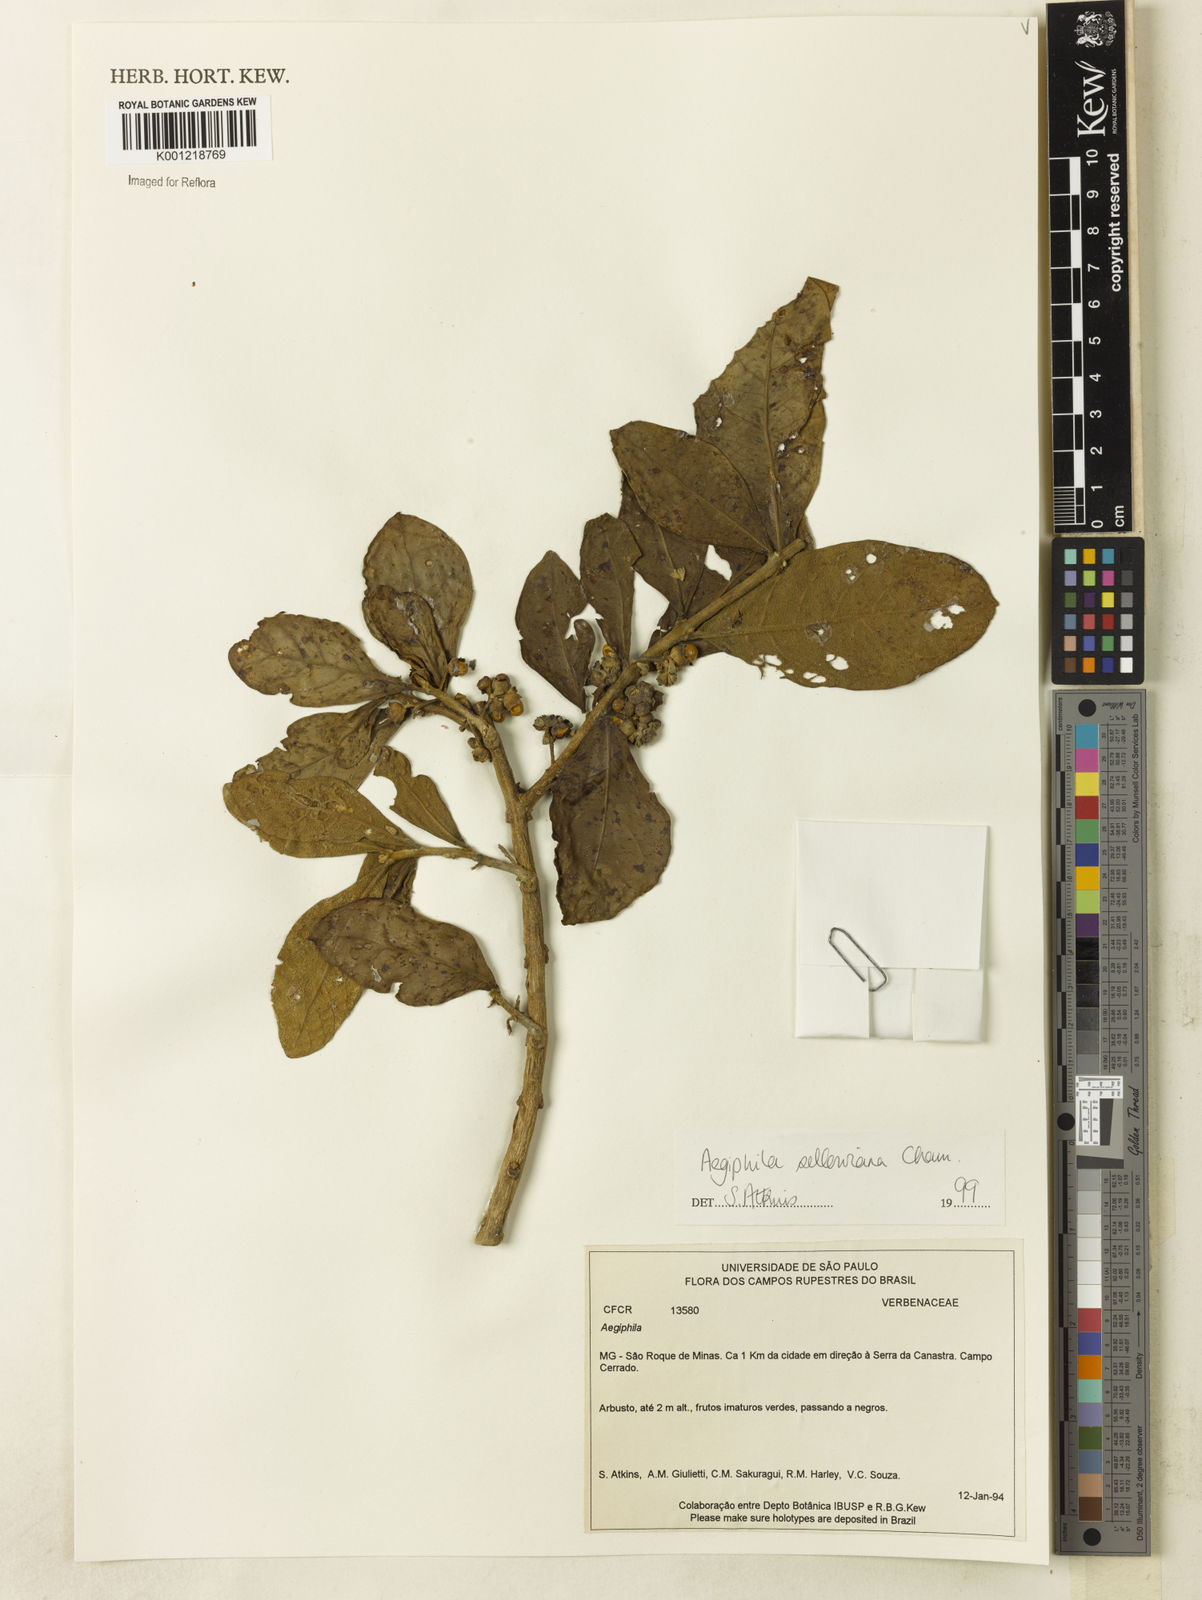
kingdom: Plantae
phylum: Tracheophyta
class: Magnoliopsida
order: Lamiales
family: Lamiaceae
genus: Aegiphila
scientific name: Aegiphila verticillata
